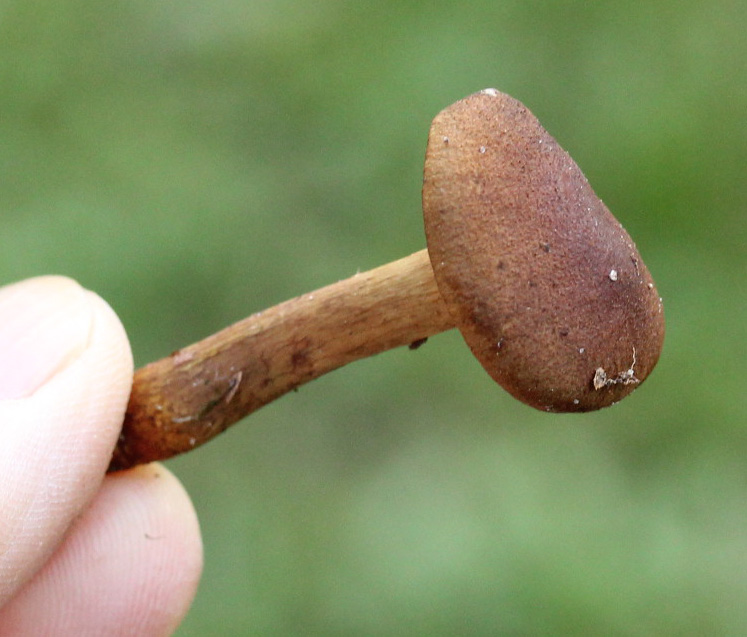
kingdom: Fungi
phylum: Basidiomycota
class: Agaricomycetes
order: Agaricales
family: Cortinariaceae
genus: Cortinarius
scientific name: Cortinarius
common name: gulbladet slørhat
